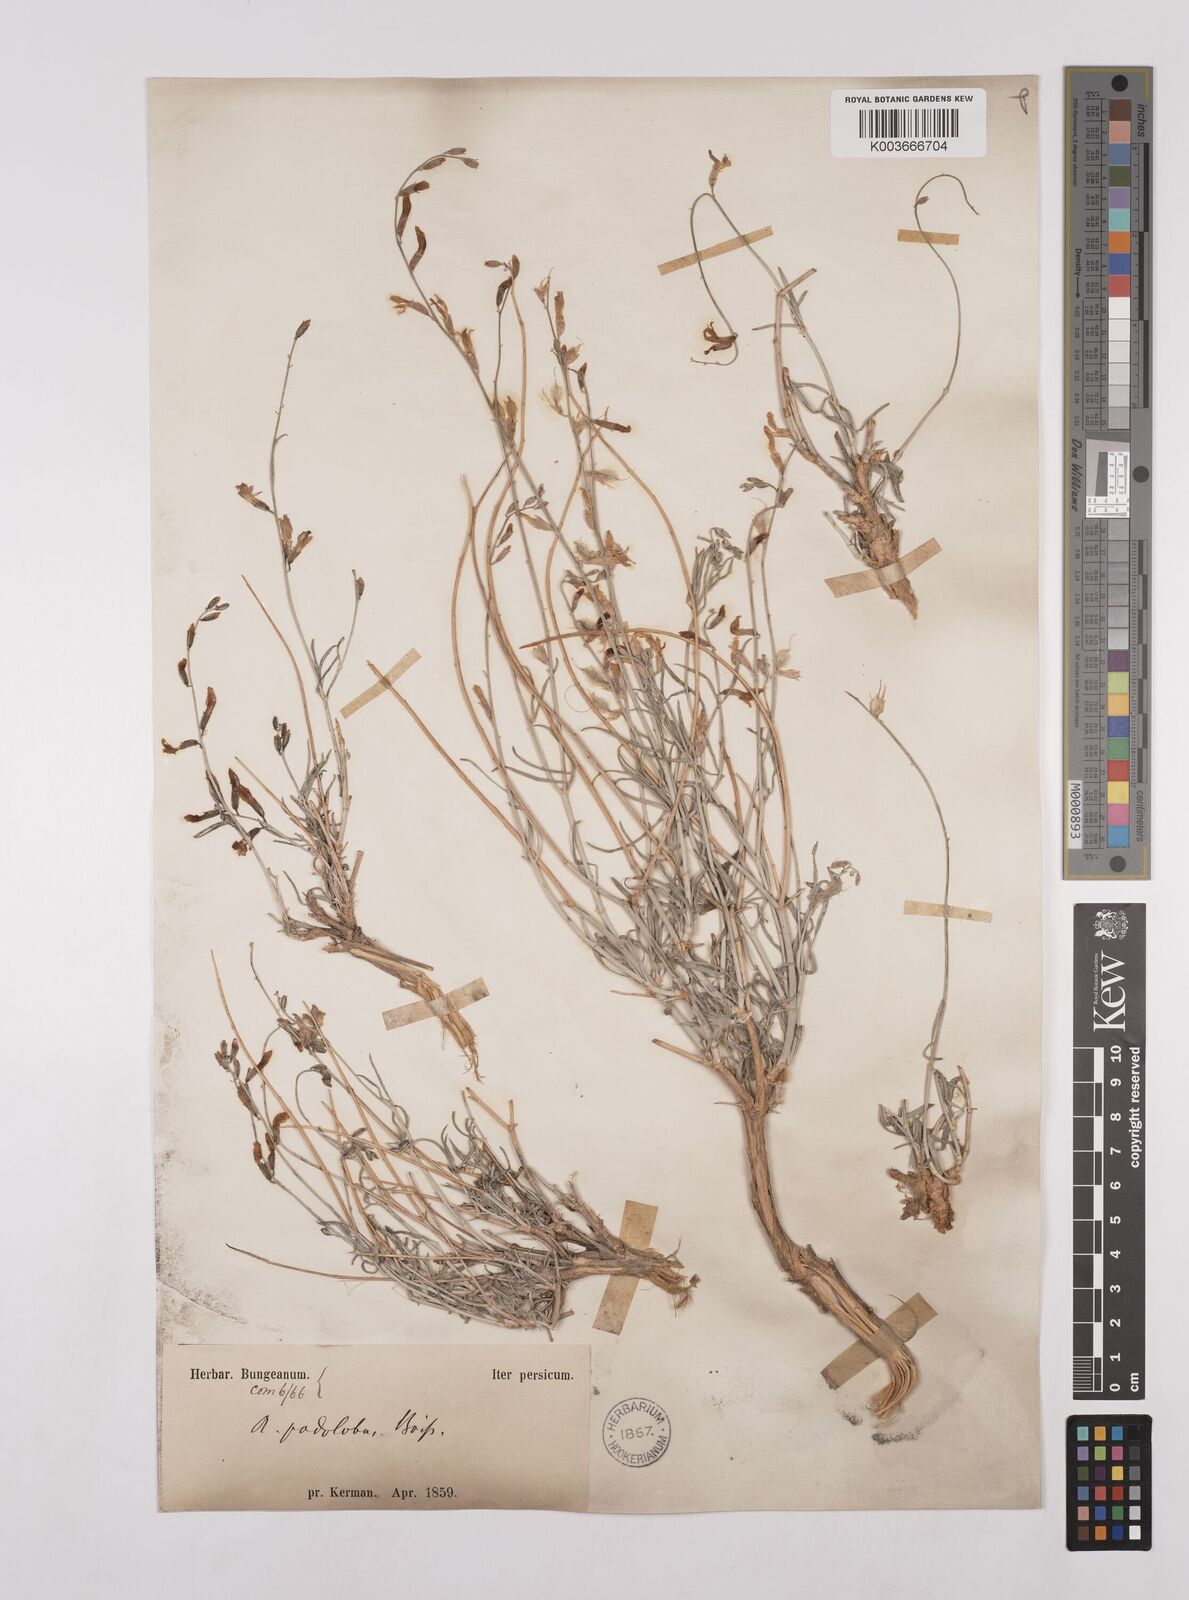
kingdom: Plantae
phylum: Tracheophyta
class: Magnoliopsida
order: Fabales
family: Fabaceae
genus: Astragalus
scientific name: Astragalus podolobus
